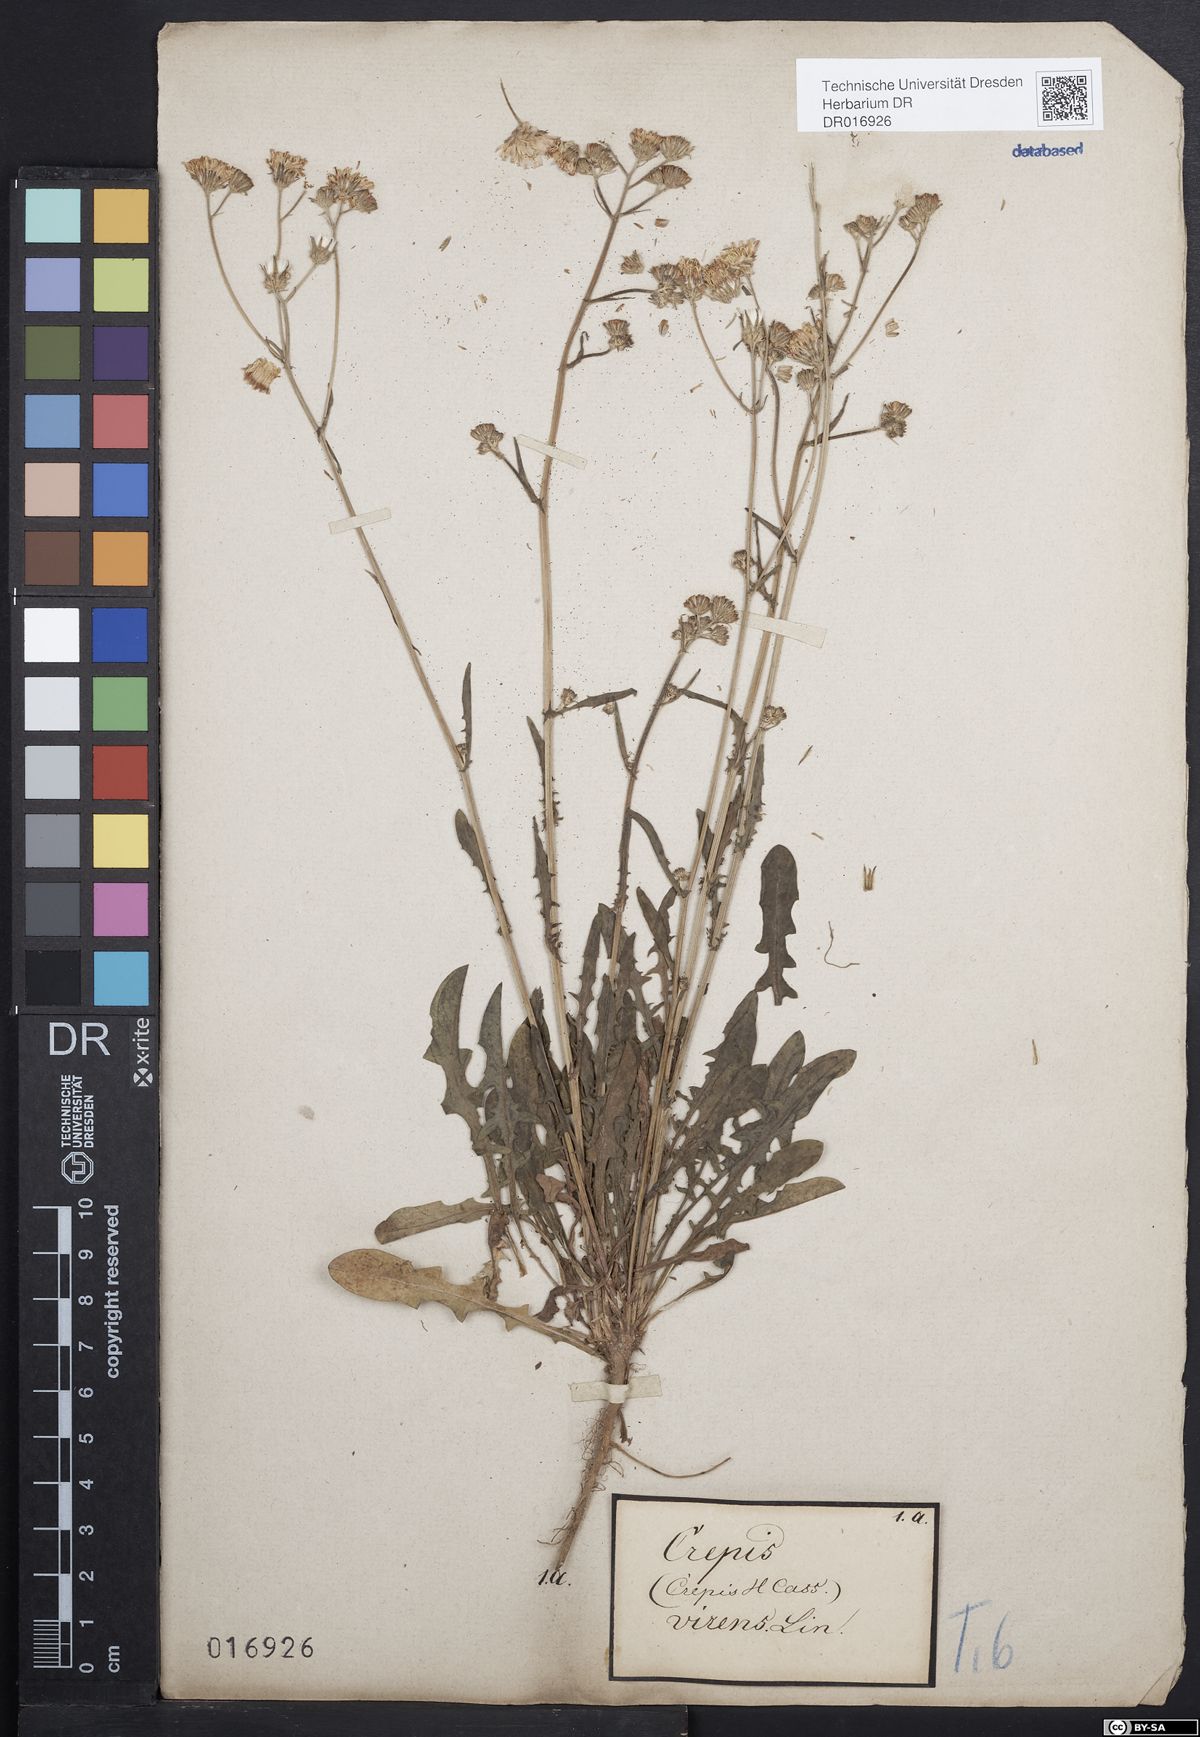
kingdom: Plantae
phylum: Tracheophyta
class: Magnoliopsida
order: Asterales
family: Asteraceae
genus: Crepis
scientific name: Crepis capillaris
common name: Smooth hawksbeard
